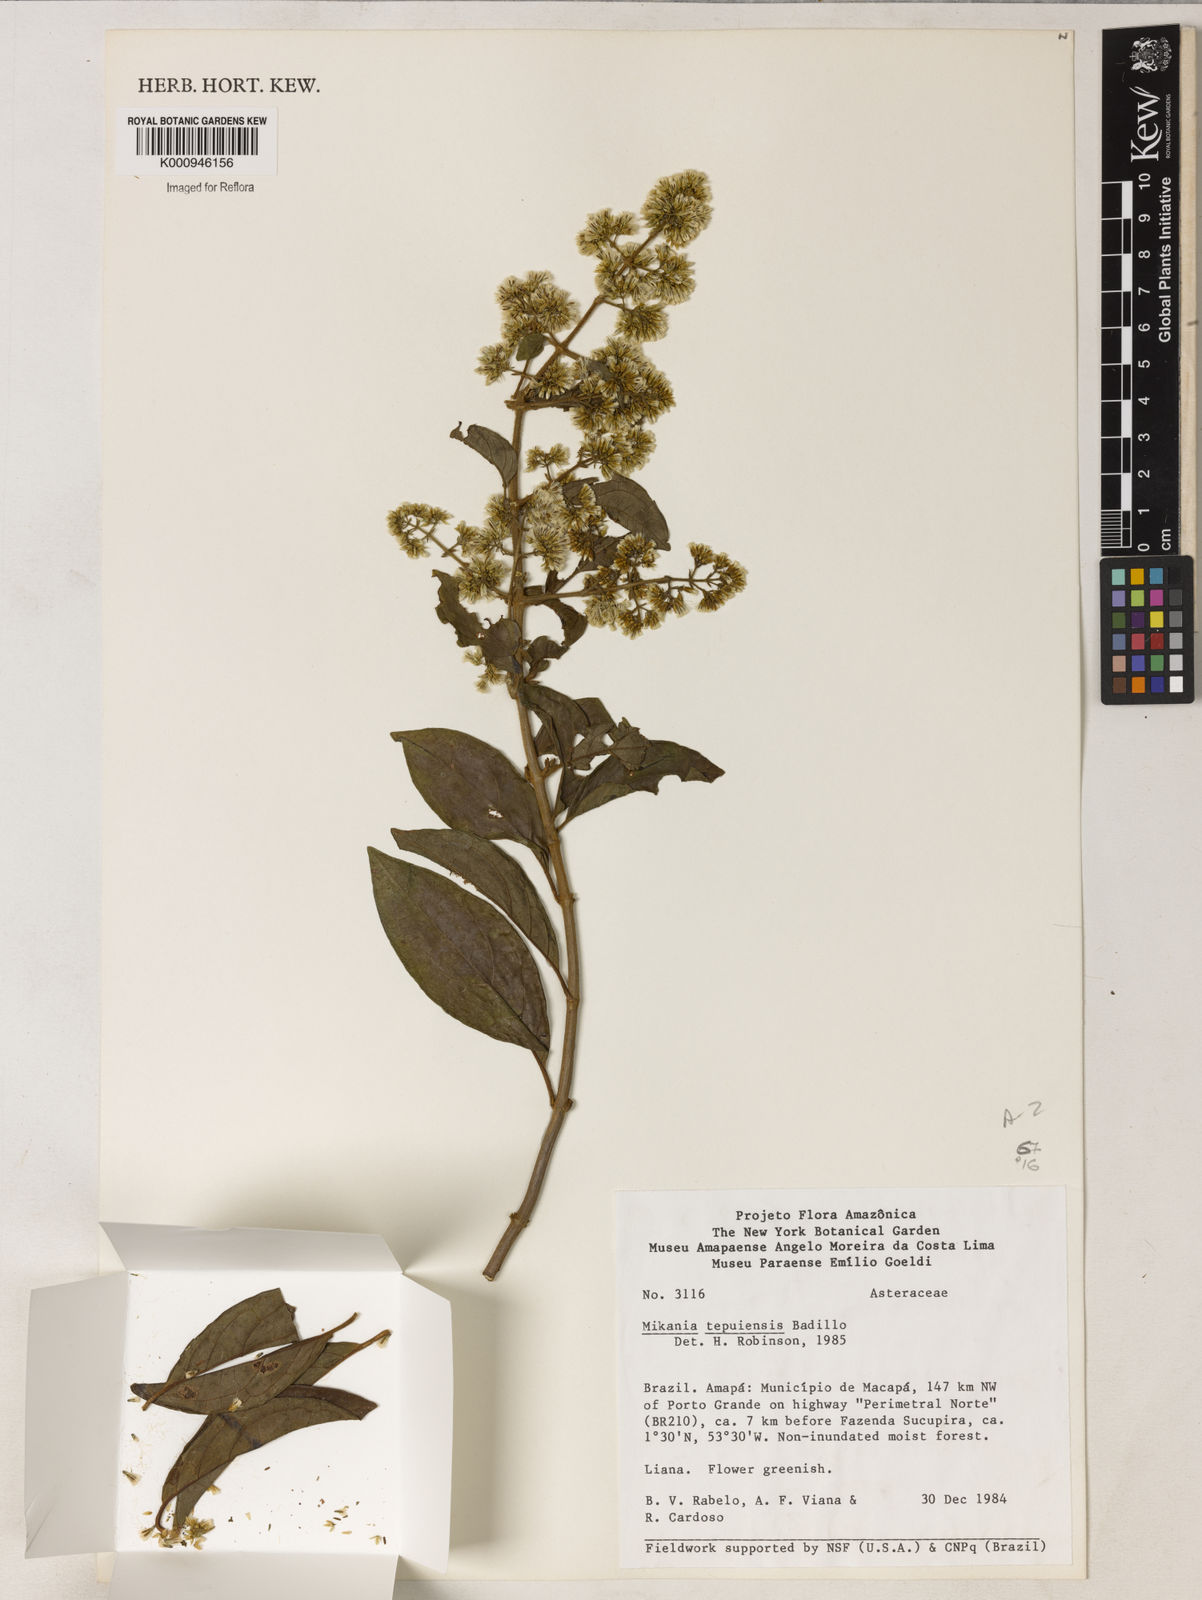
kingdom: Plantae
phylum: Tracheophyta
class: Magnoliopsida
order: Asterales
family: Asteraceae
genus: Mikania
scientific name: Mikania nemorosa
